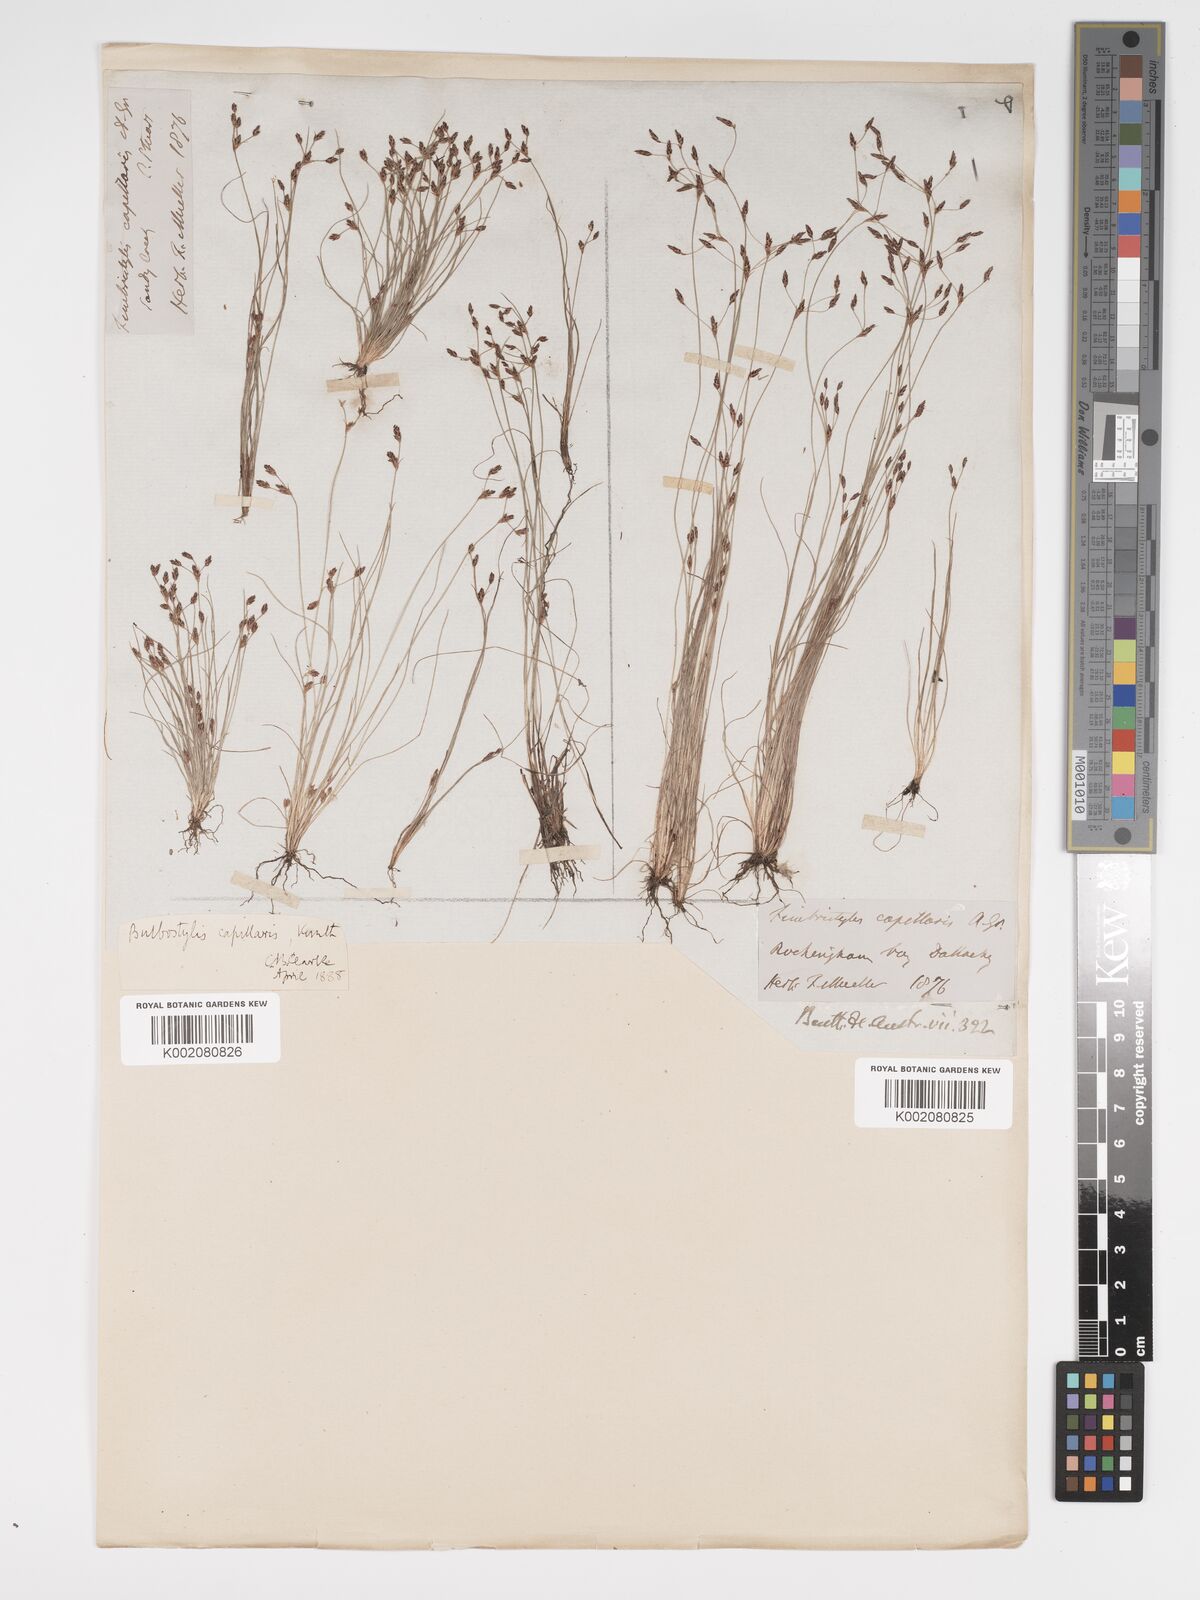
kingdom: Plantae
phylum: Tracheophyta
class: Liliopsida
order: Poales
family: Cyperaceae
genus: Bulbostylis
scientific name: Bulbostylis capillaris
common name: Densetuft hairsedge
